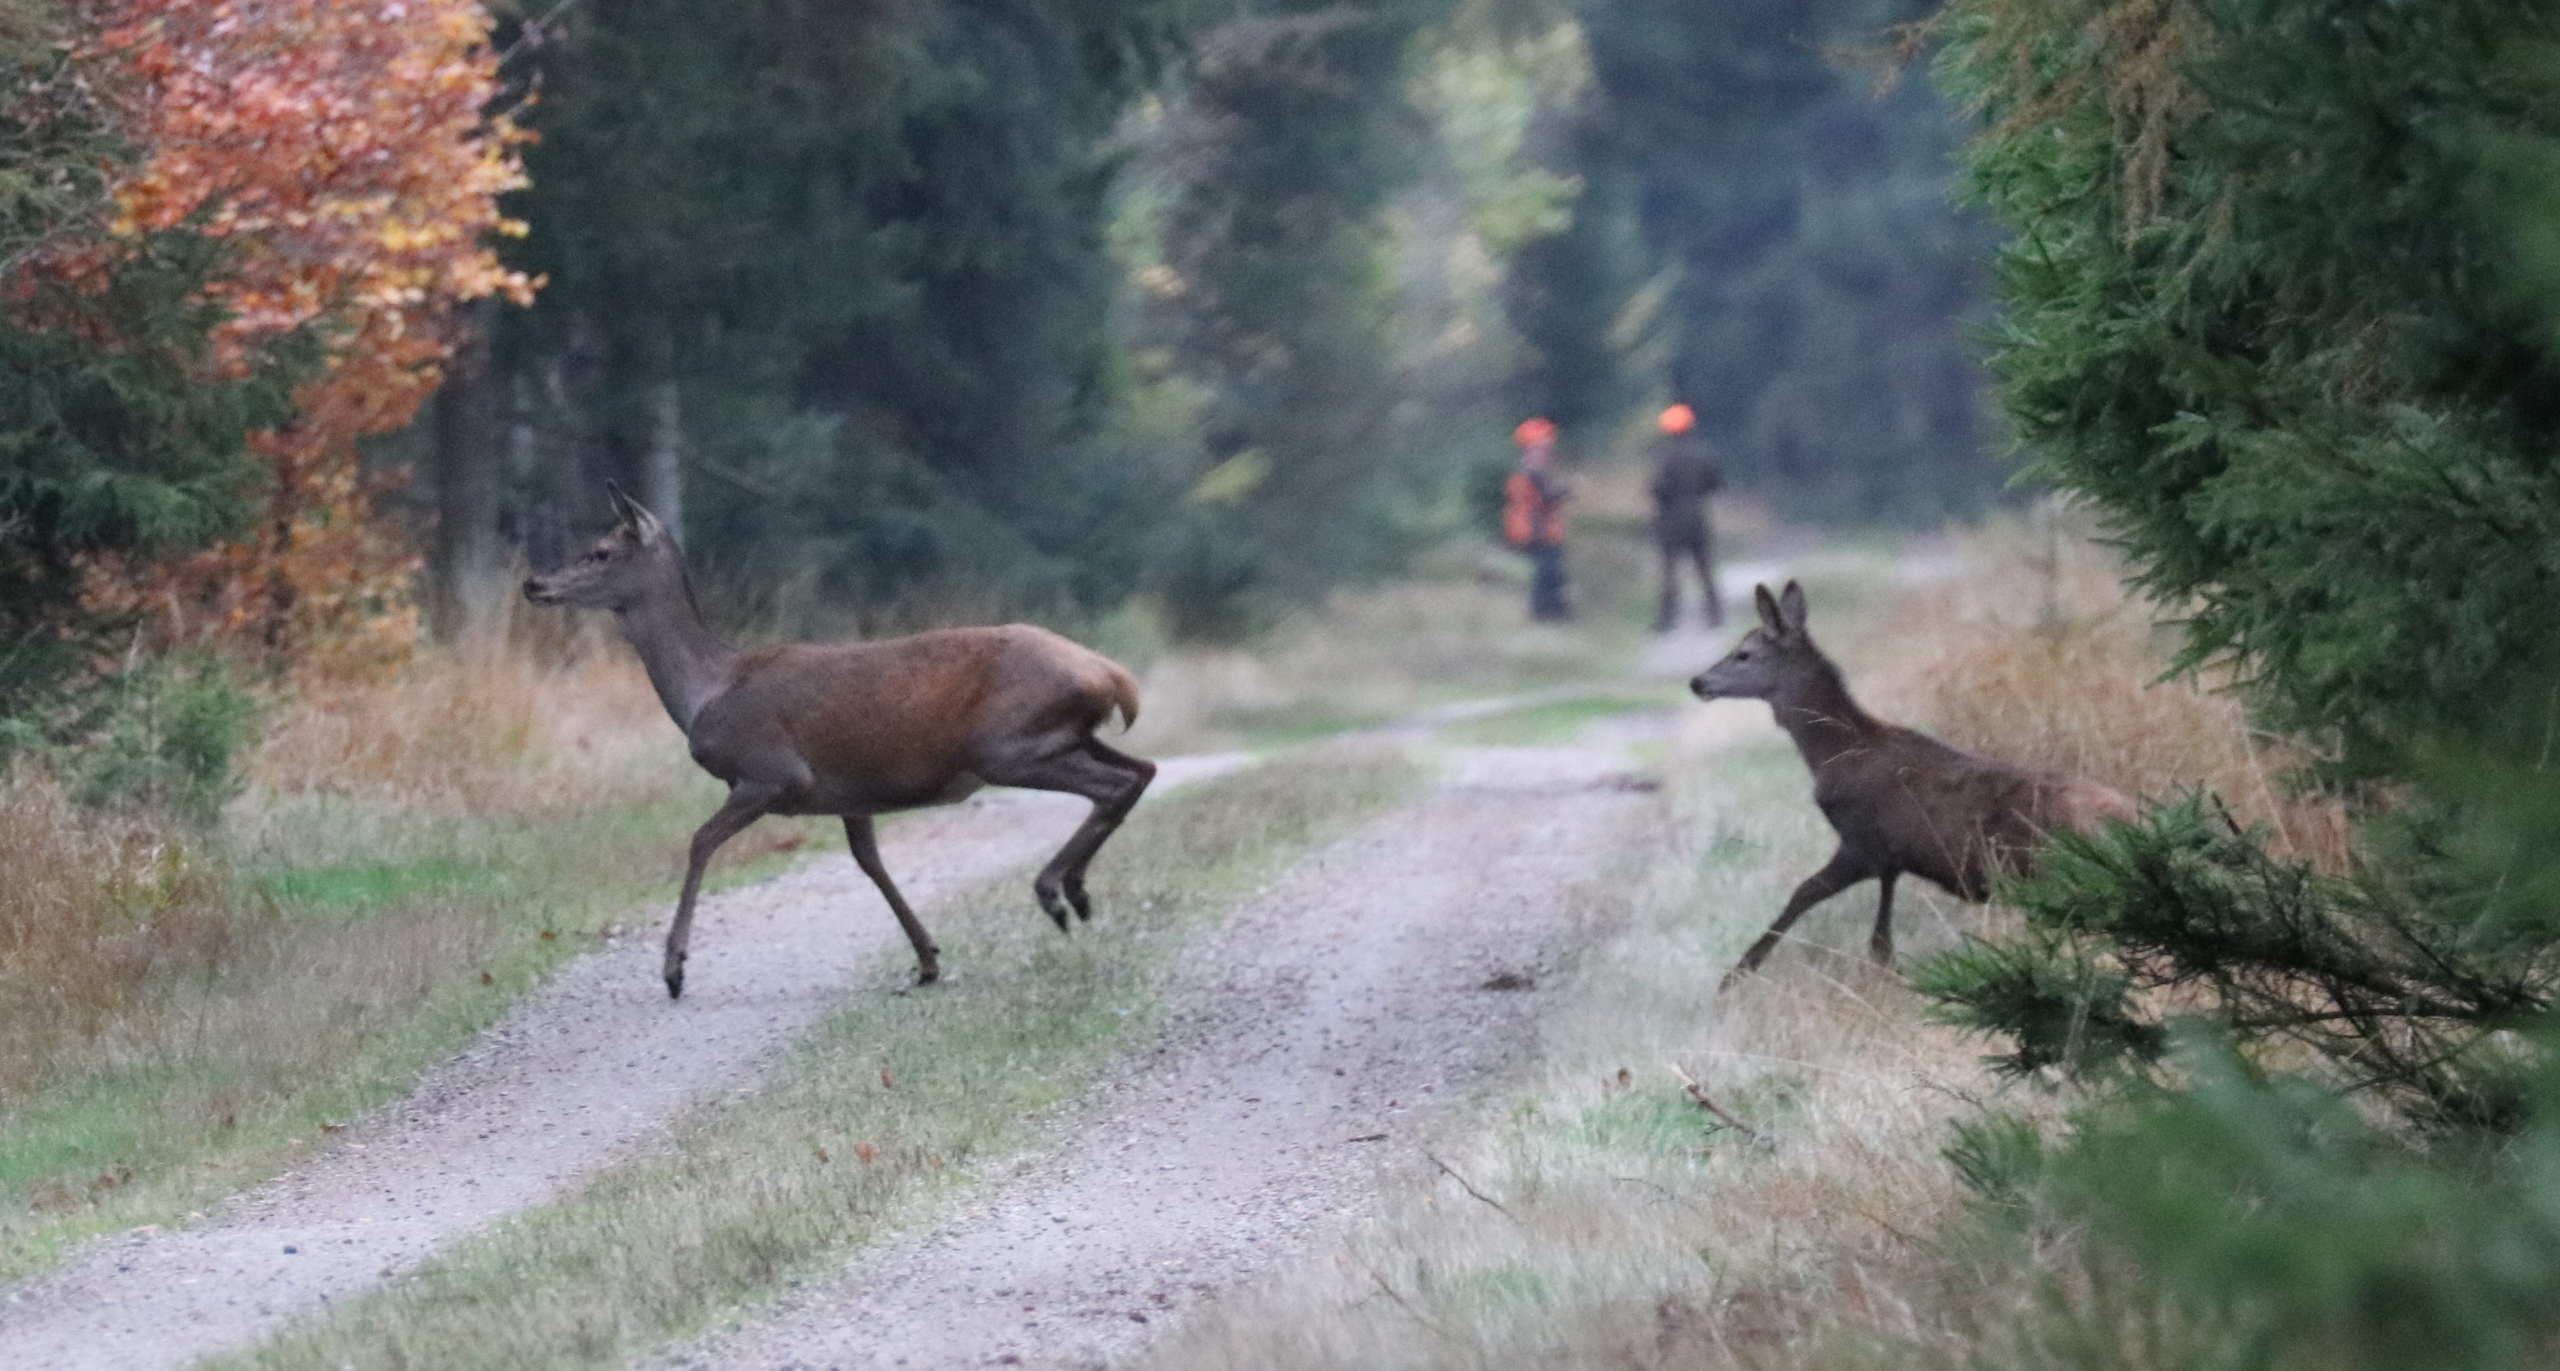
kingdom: Animalia
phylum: Chordata
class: Mammalia
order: Artiodactyla
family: Cervidae
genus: Cervus
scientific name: Cervus elaphus
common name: Krondyr
